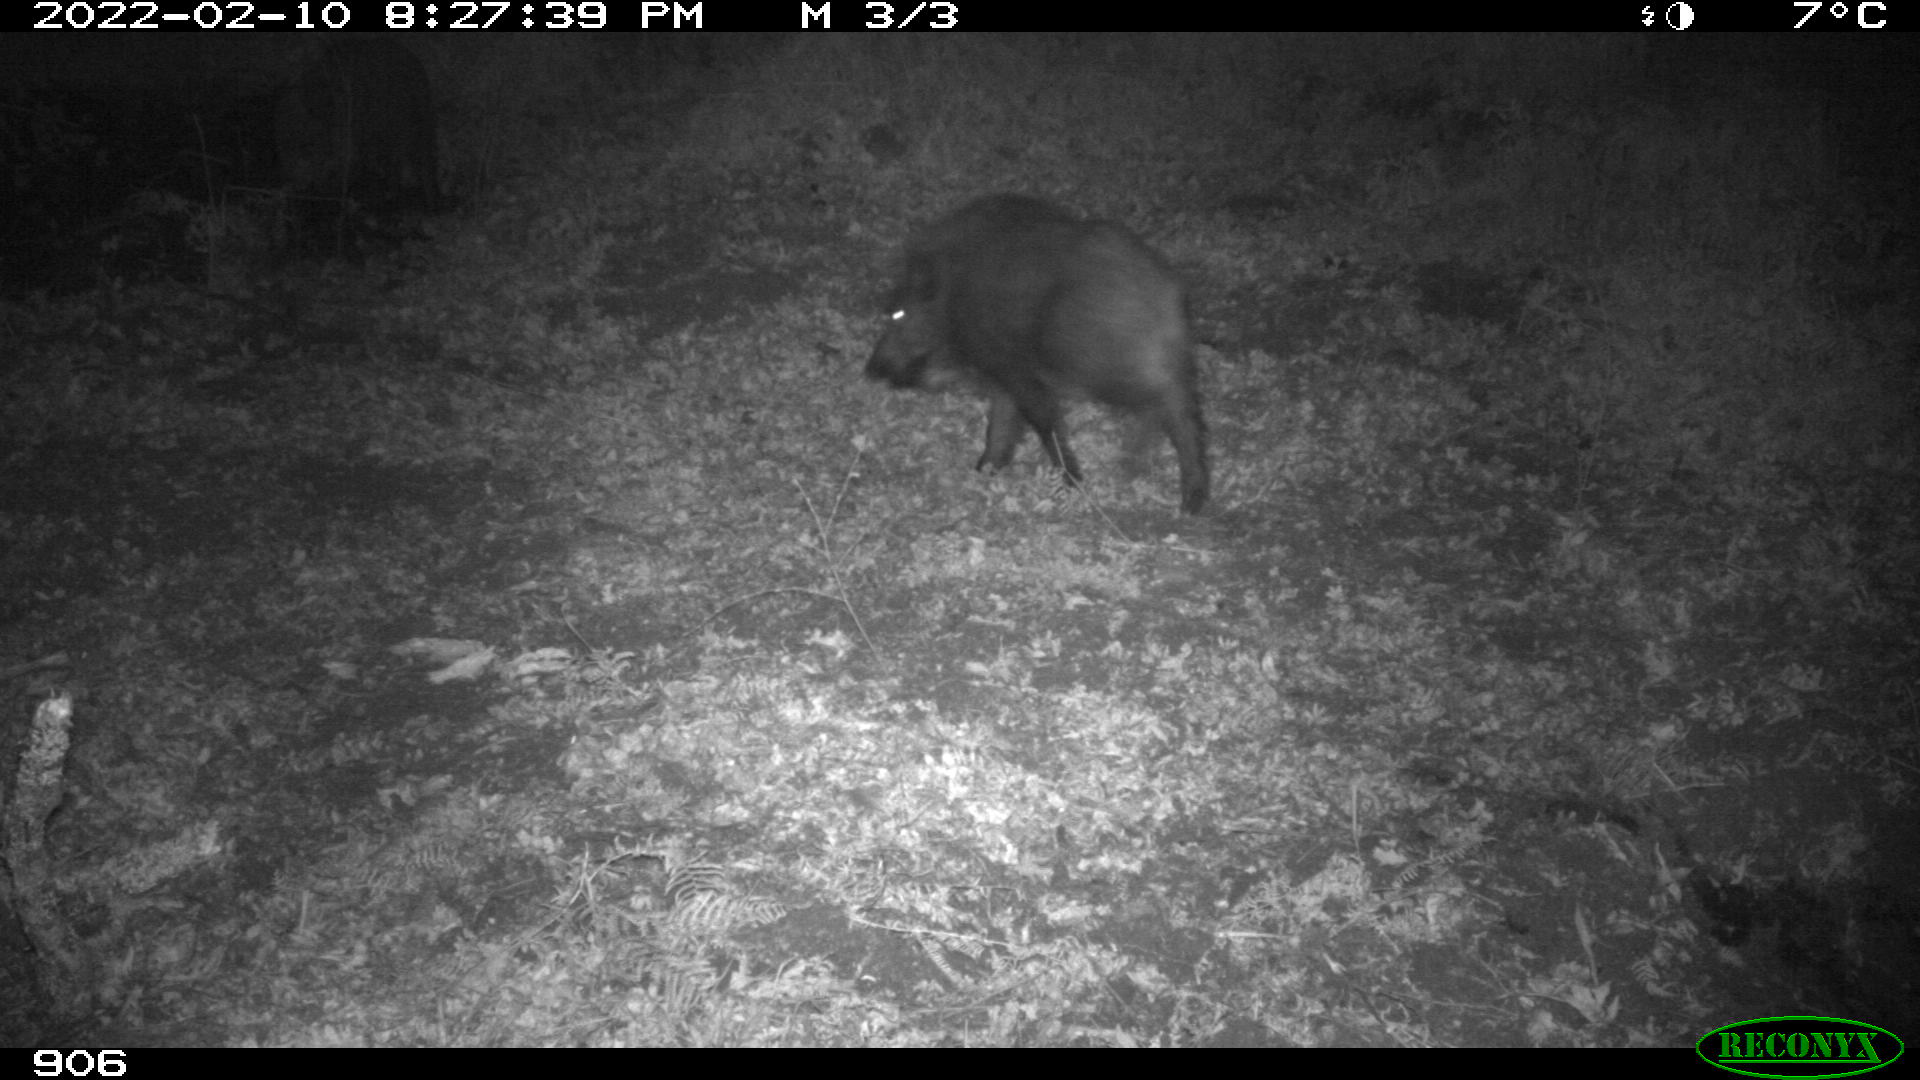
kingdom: Animalia
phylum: Chordata
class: Mammalia
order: Artiodactyla
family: Suidae
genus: Sus
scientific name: Sus scrofa
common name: Wild boar
